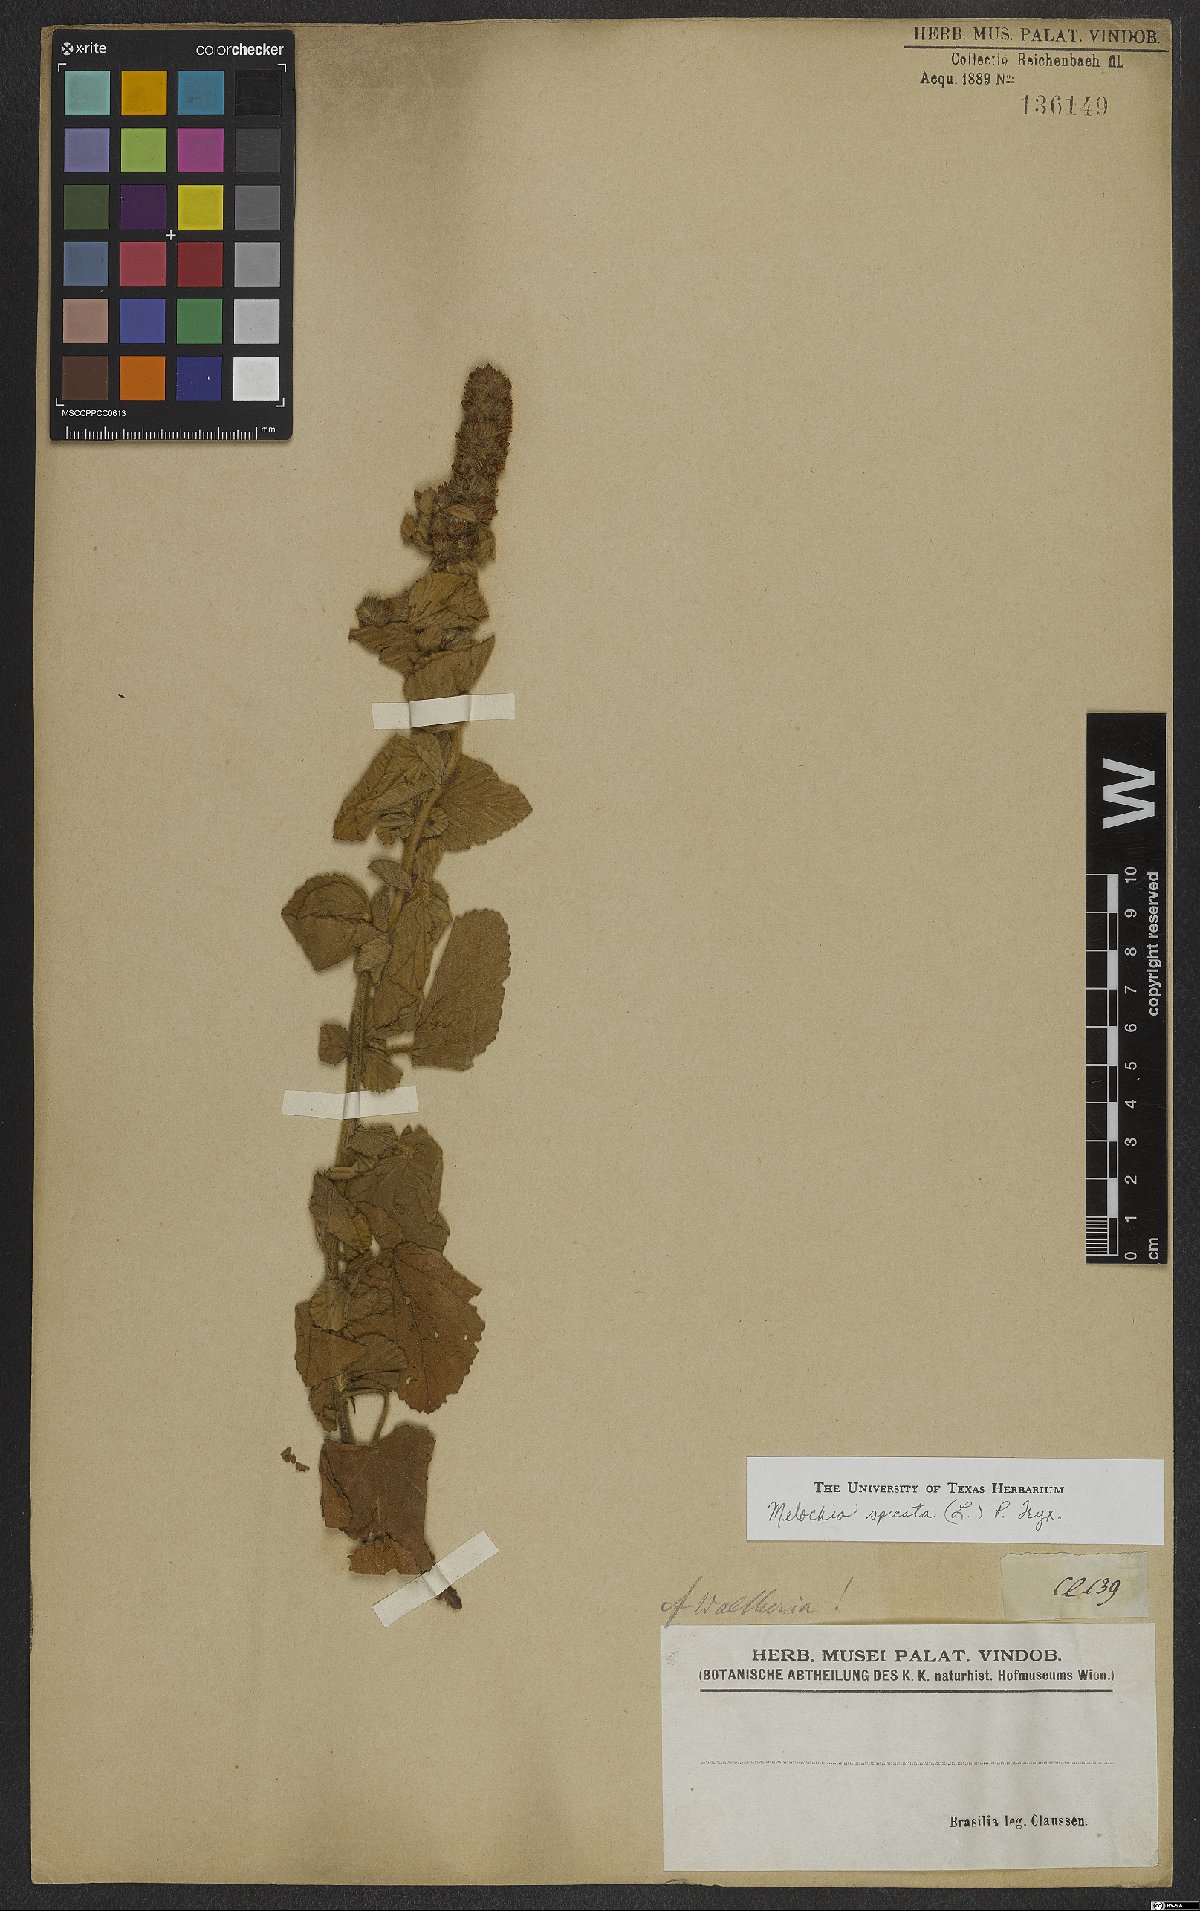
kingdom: Plantae
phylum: Tracheophyta
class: Magnoliopsida
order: Malvales
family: Malvaceae
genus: Melochia
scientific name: Melochia spicata
